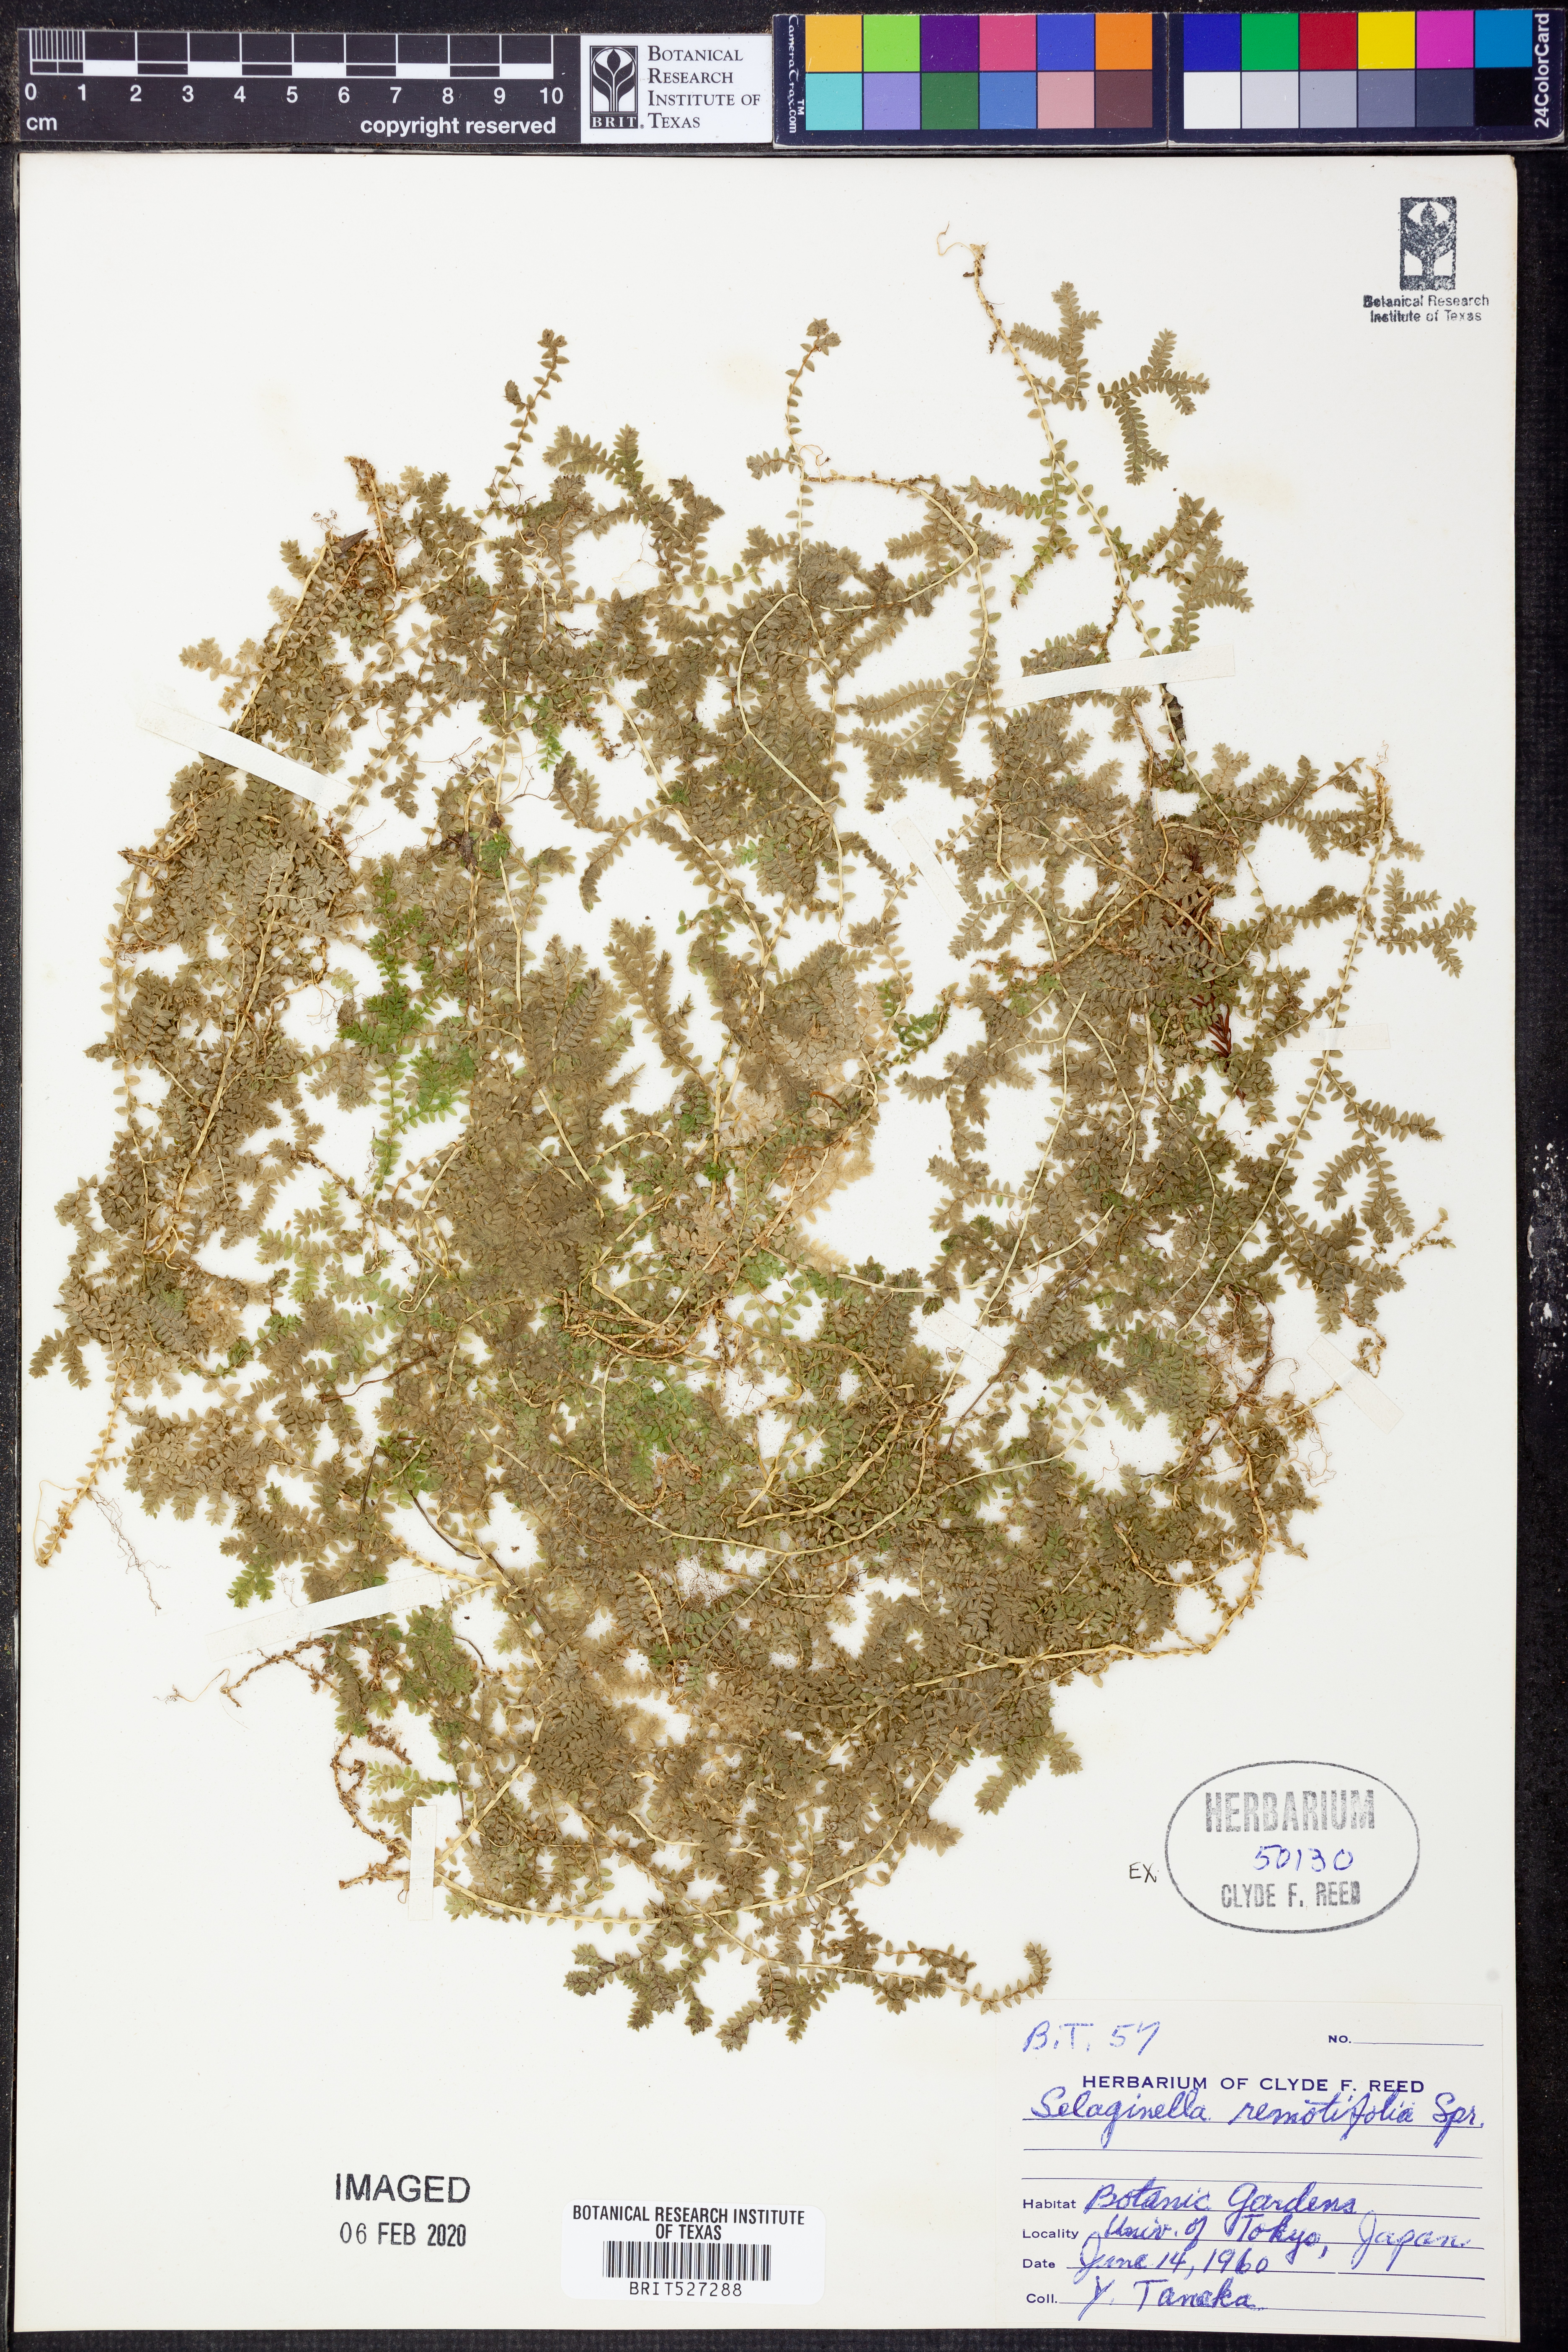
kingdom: Plantae
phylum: Tracheophyta
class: Lycopodiopsida
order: Selaginellales
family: Selaginellaceae
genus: Selaginella
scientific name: Selaginella remotifolia
